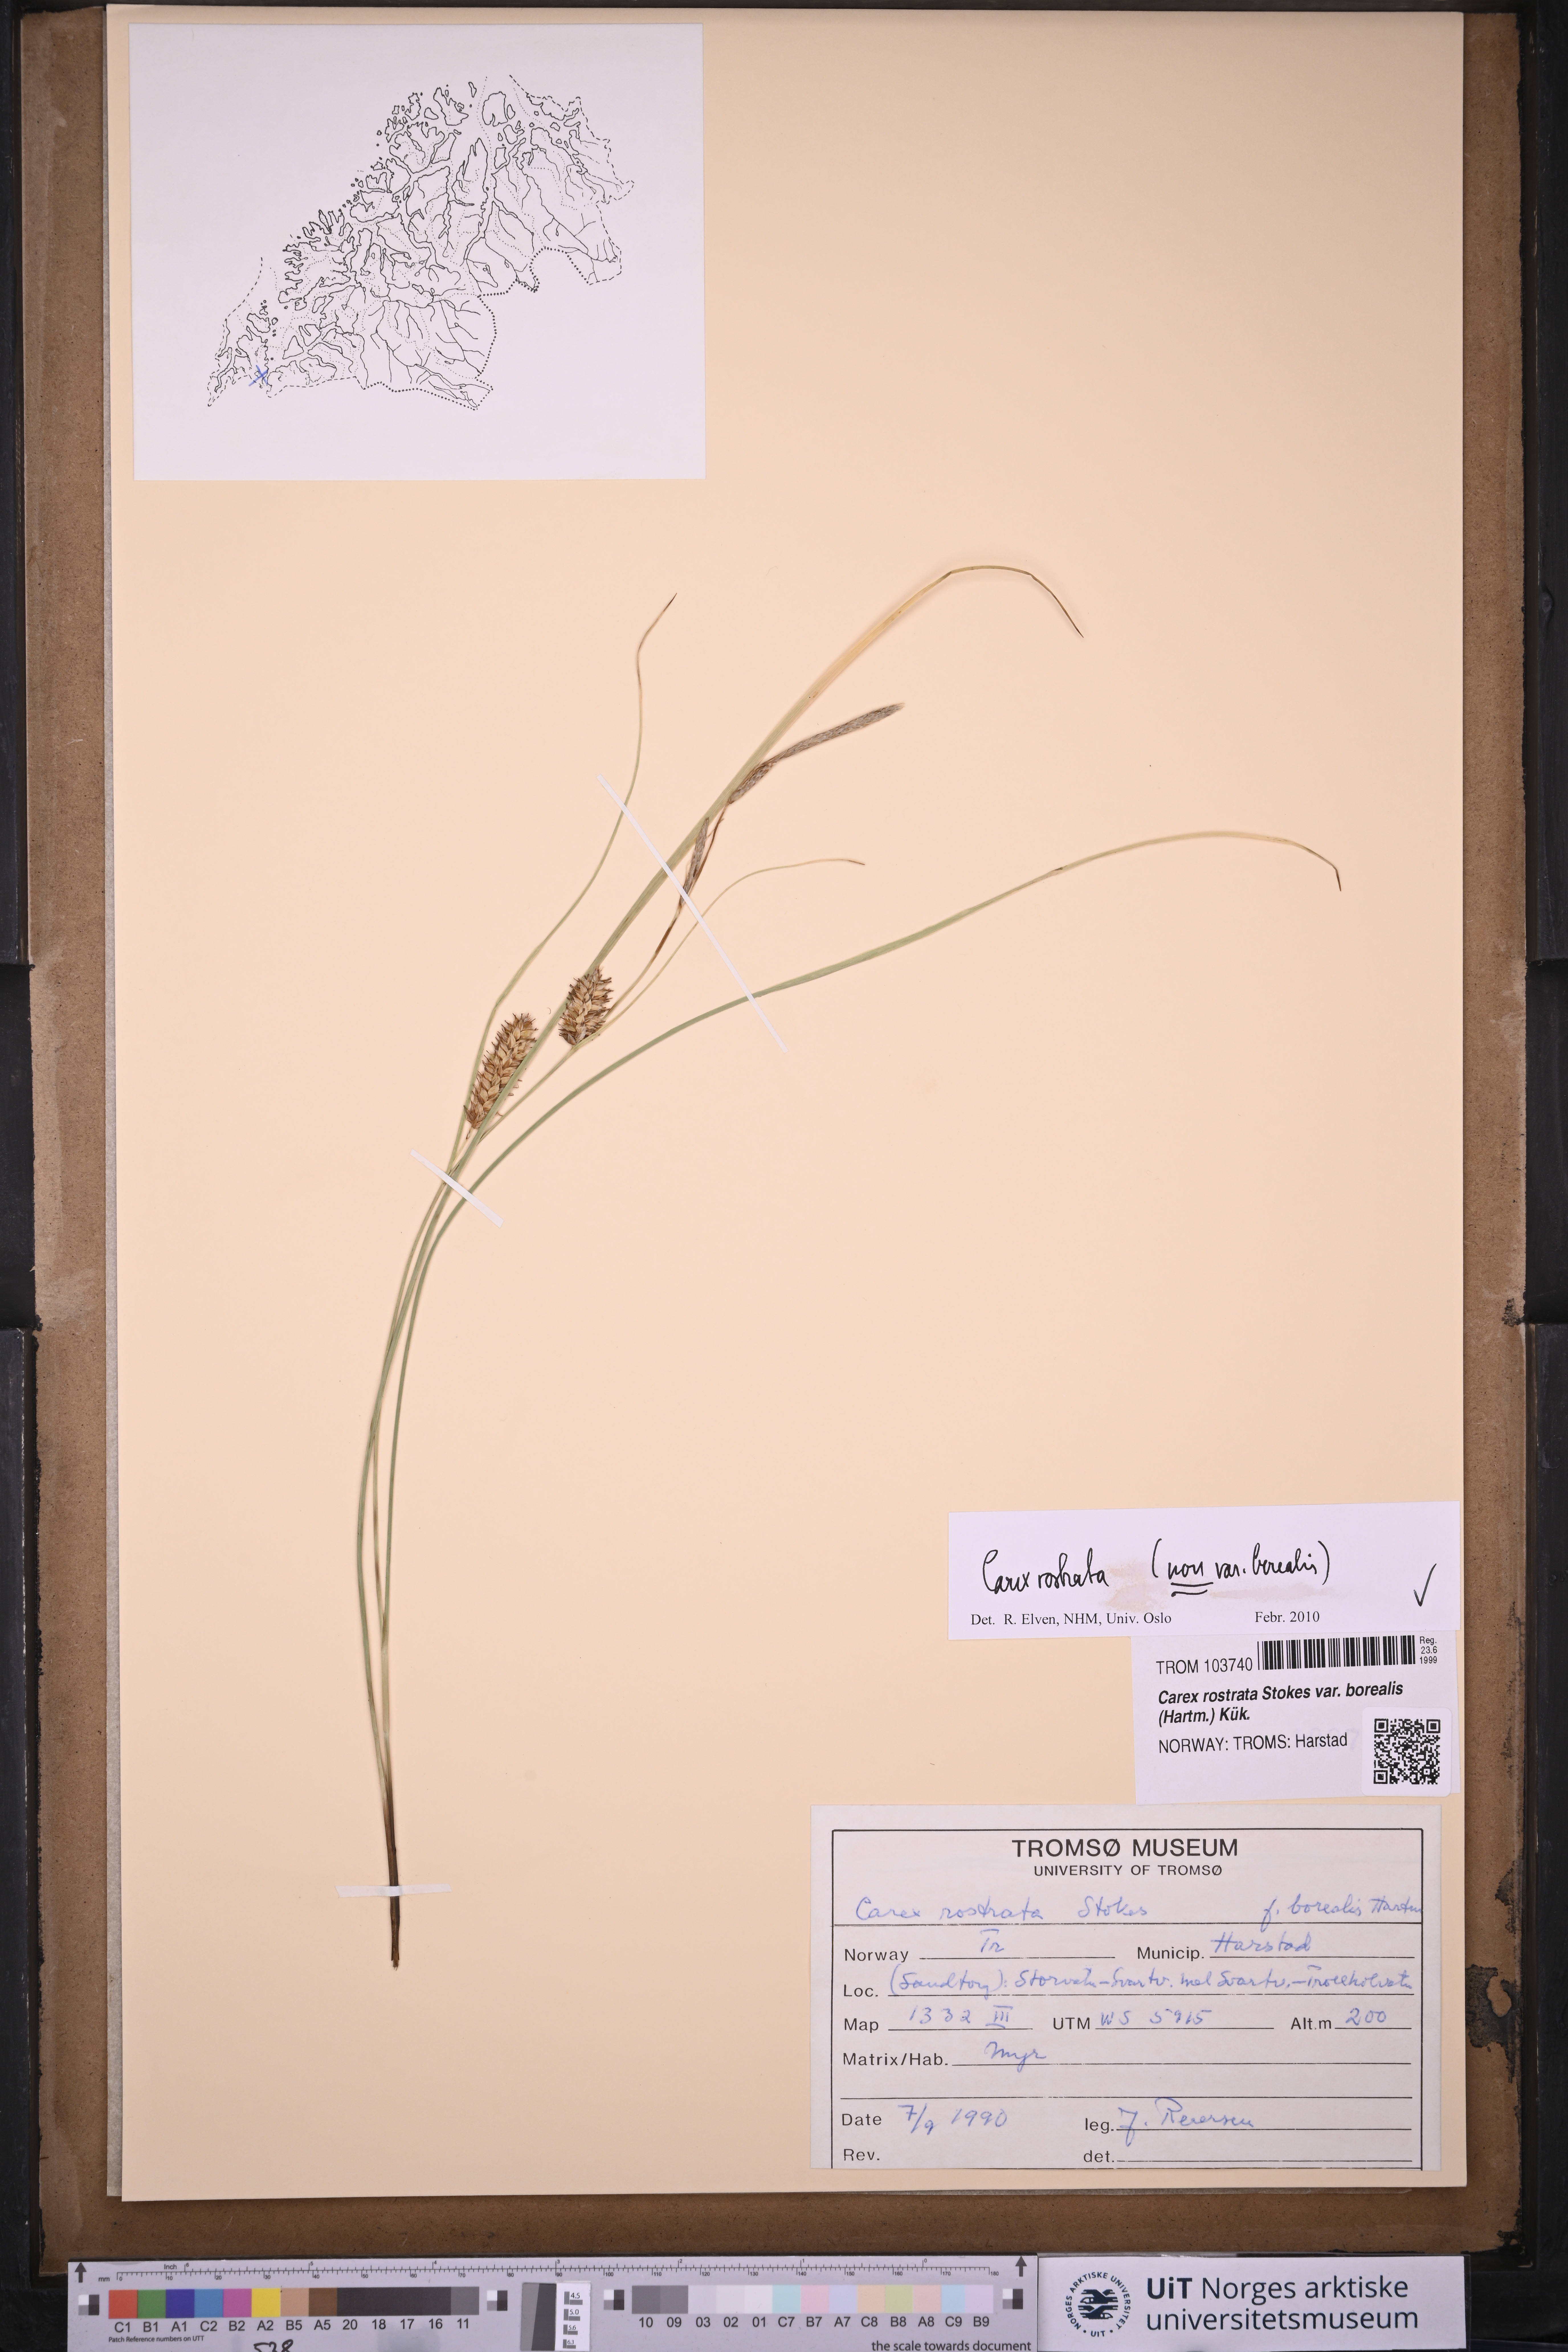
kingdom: Plantae
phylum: Tracheophyta
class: Liliopsida
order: Poales
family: Cyperaceae
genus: Carex
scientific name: Carex rostrata
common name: Bottle sedge
